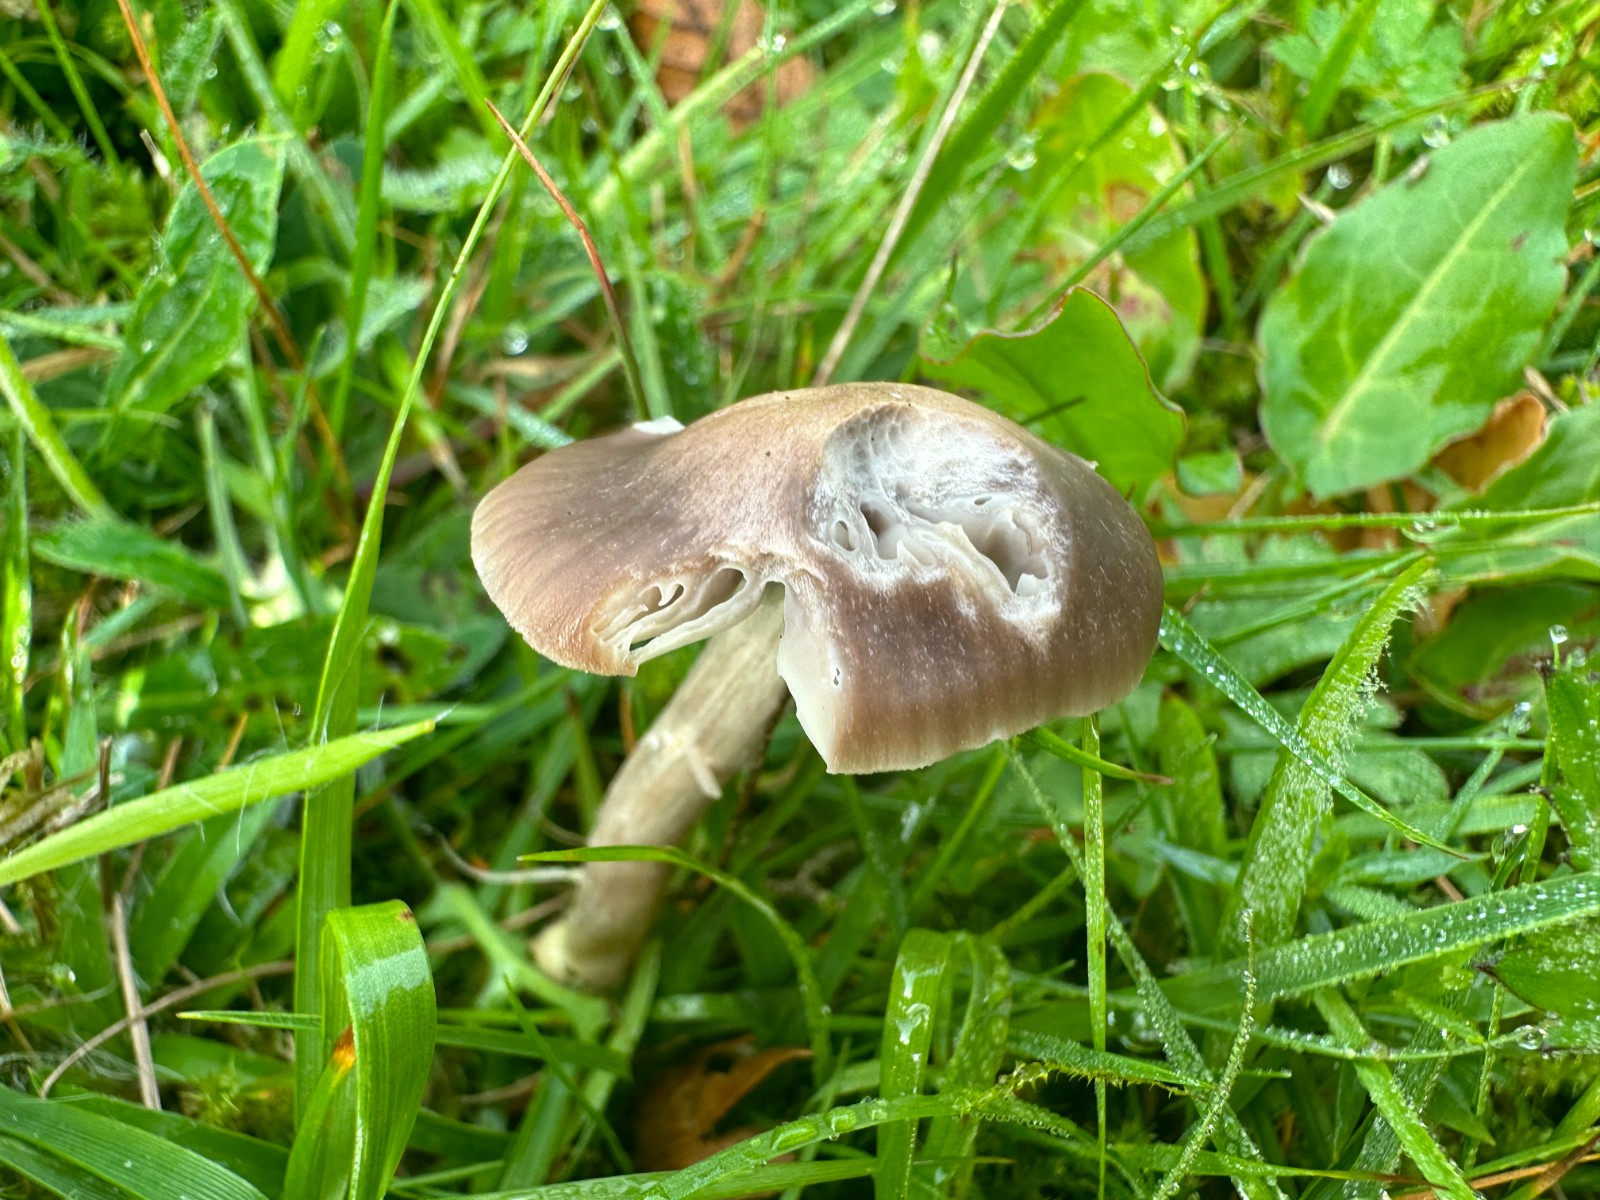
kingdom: Fungi
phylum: Basidiomycota
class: Agaricomycetes
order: Agaricales
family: Hygrophoraceae
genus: Cuphophyllus
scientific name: Cuphophyllus flavipes
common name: gulfodet vokshat
